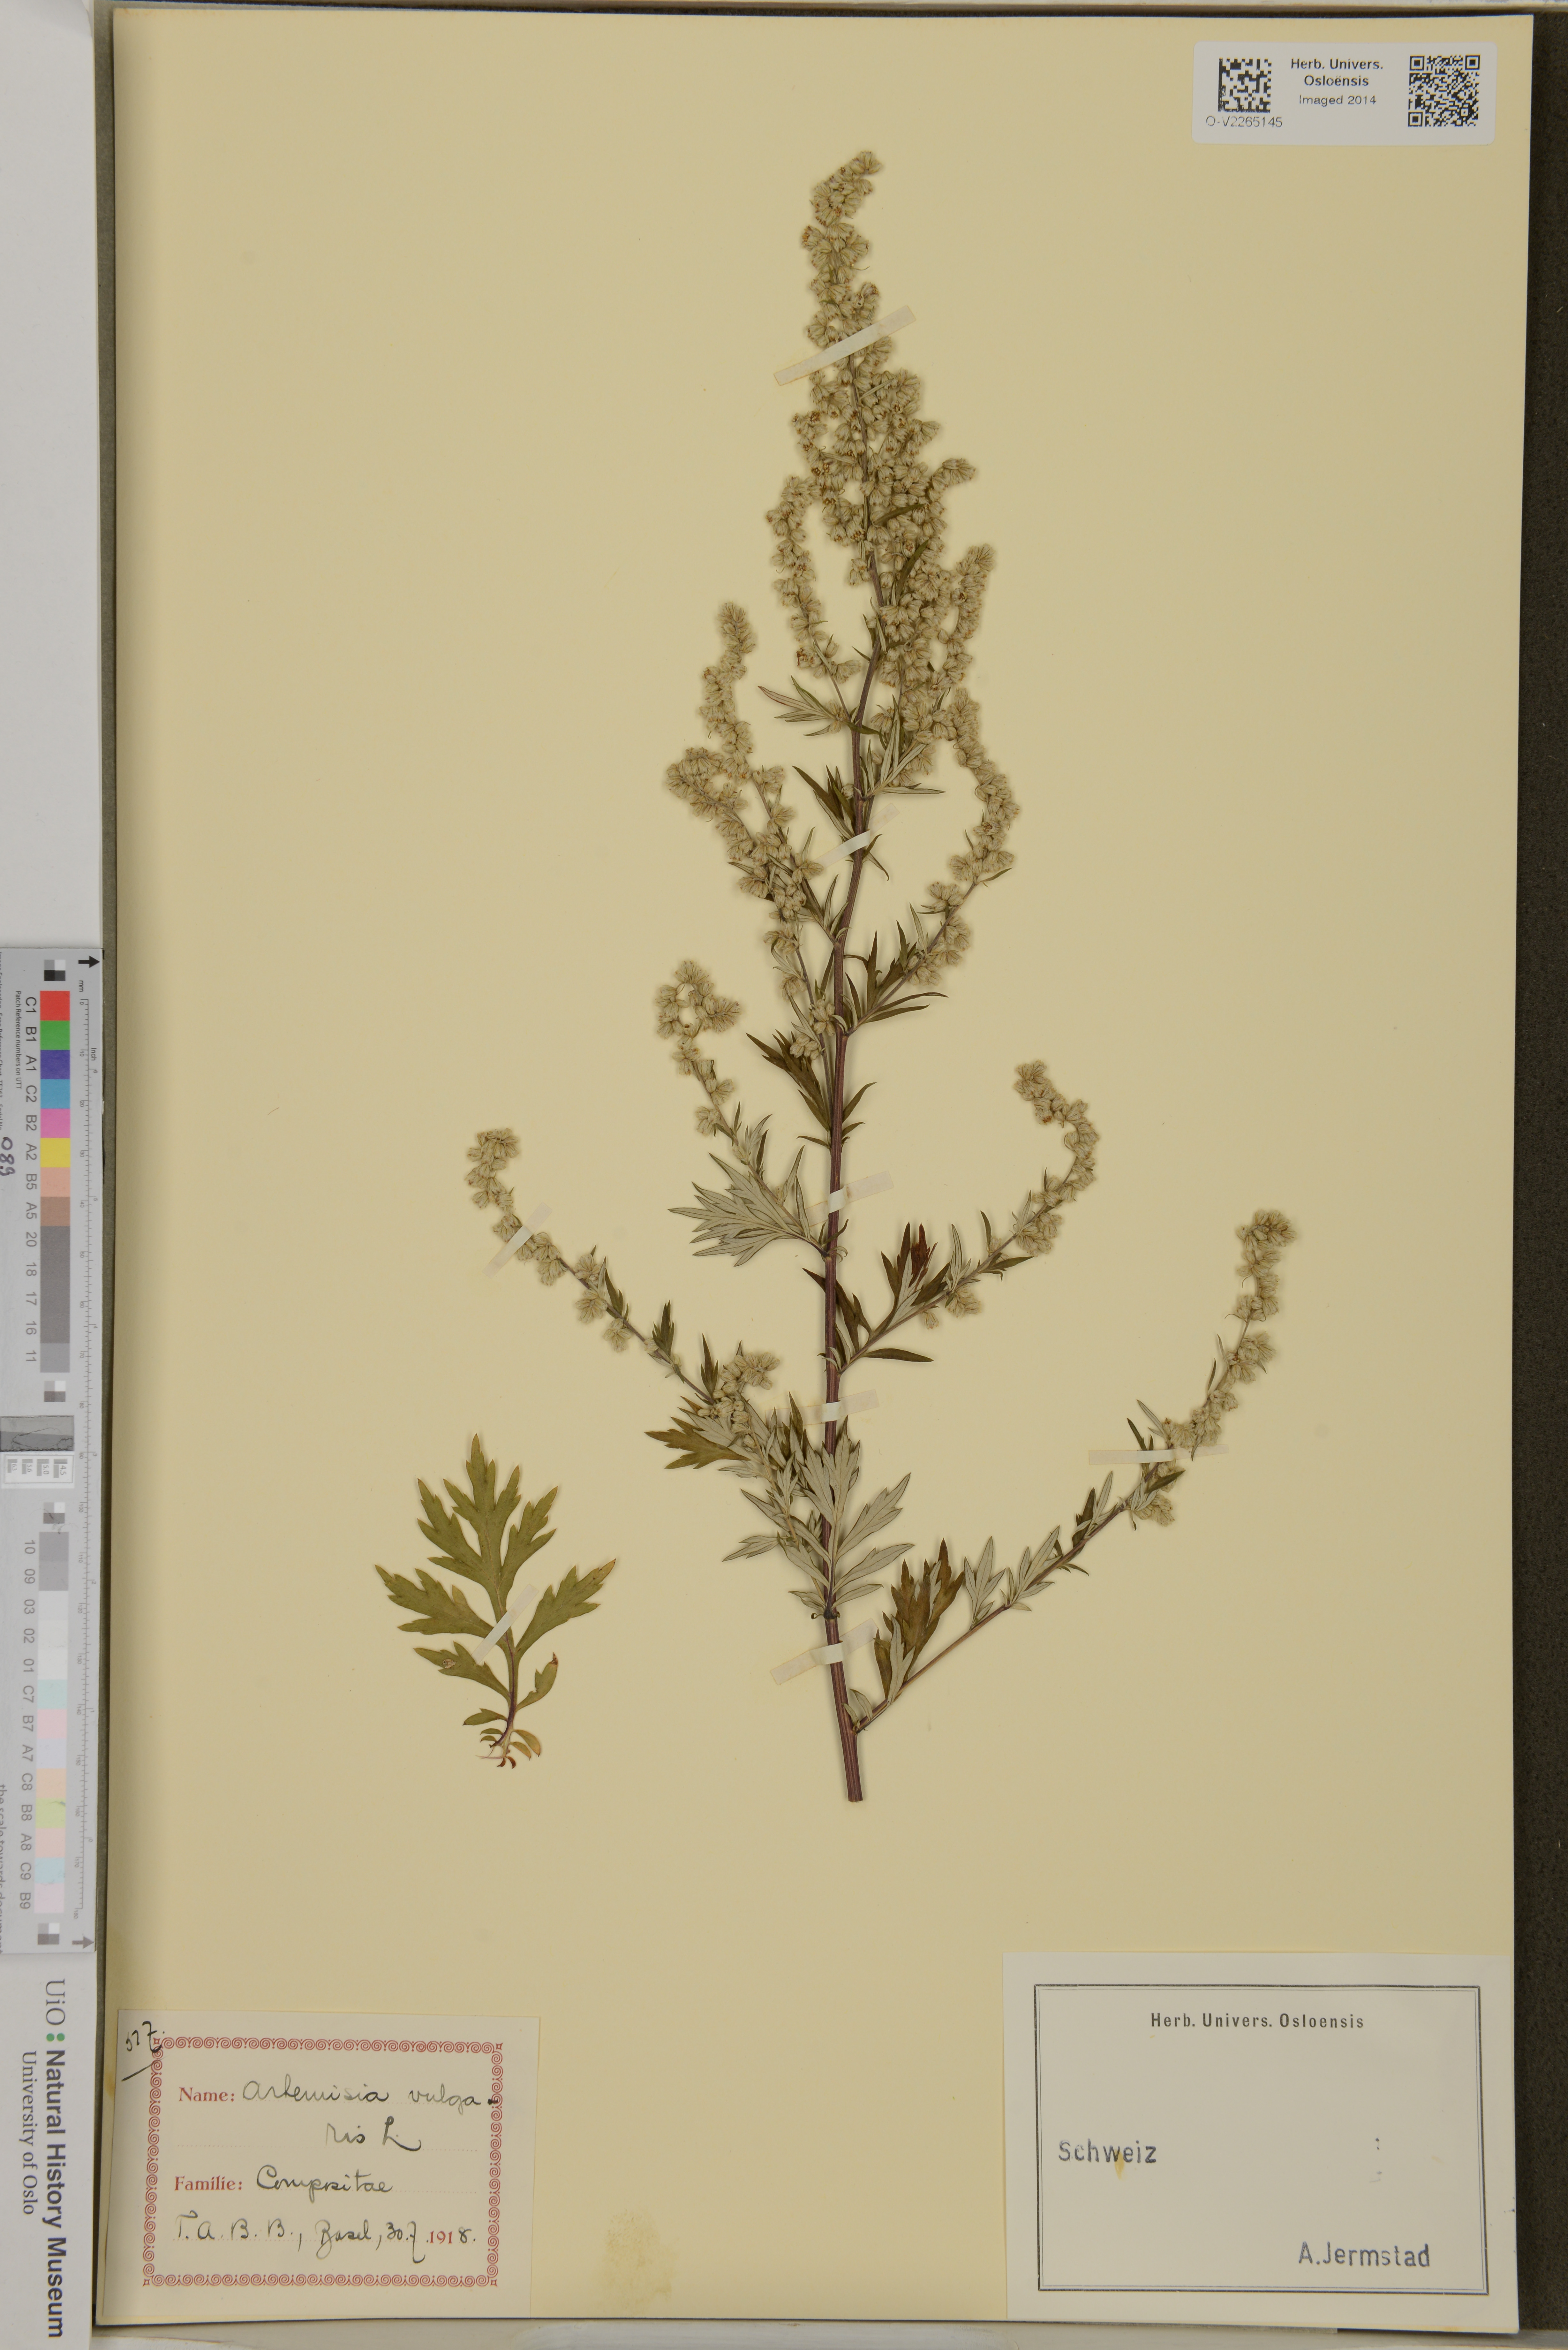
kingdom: Plantae
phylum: Tracheophyta
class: Magnoliopsida
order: Asterales
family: Asteraceae
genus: Artemisia
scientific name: Artemisia vulgaris
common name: Mugwort
